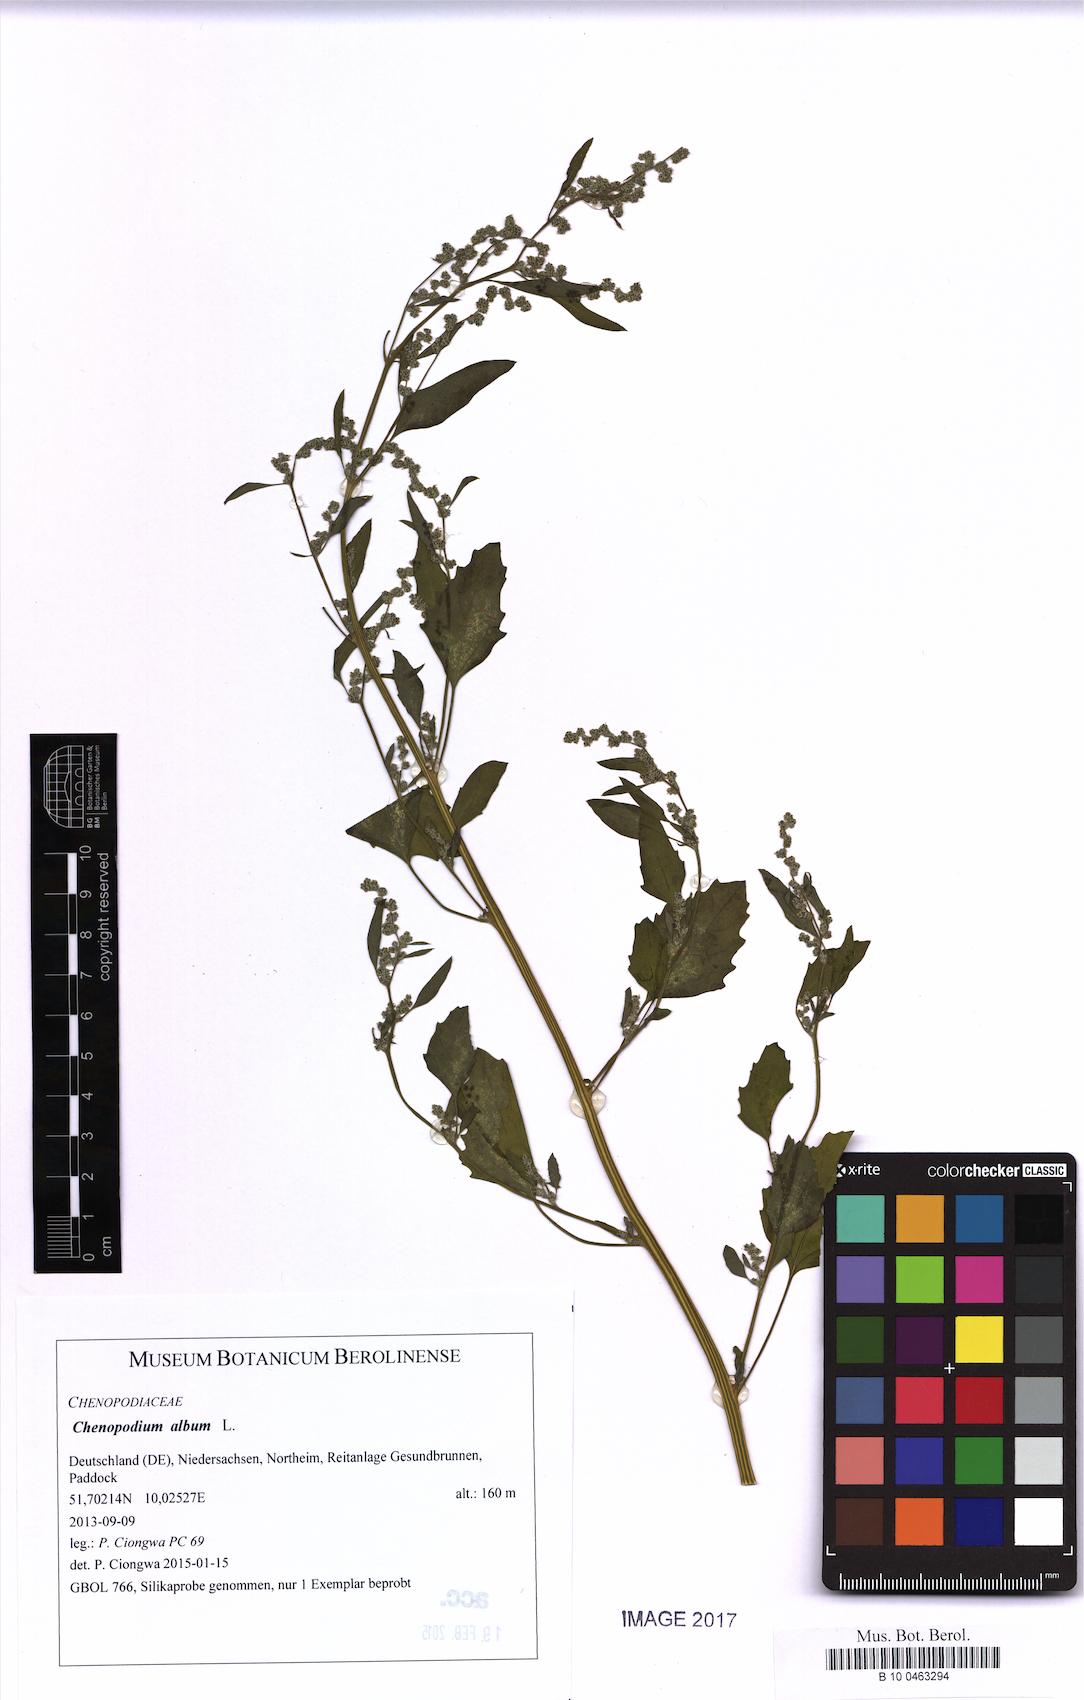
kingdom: Plantae
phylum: Tracheophyta
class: Magnoliopsida
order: Caryophyllales
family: Amaranthaceae
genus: Chenopodium
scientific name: Chenopodium album
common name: Fat-hen
